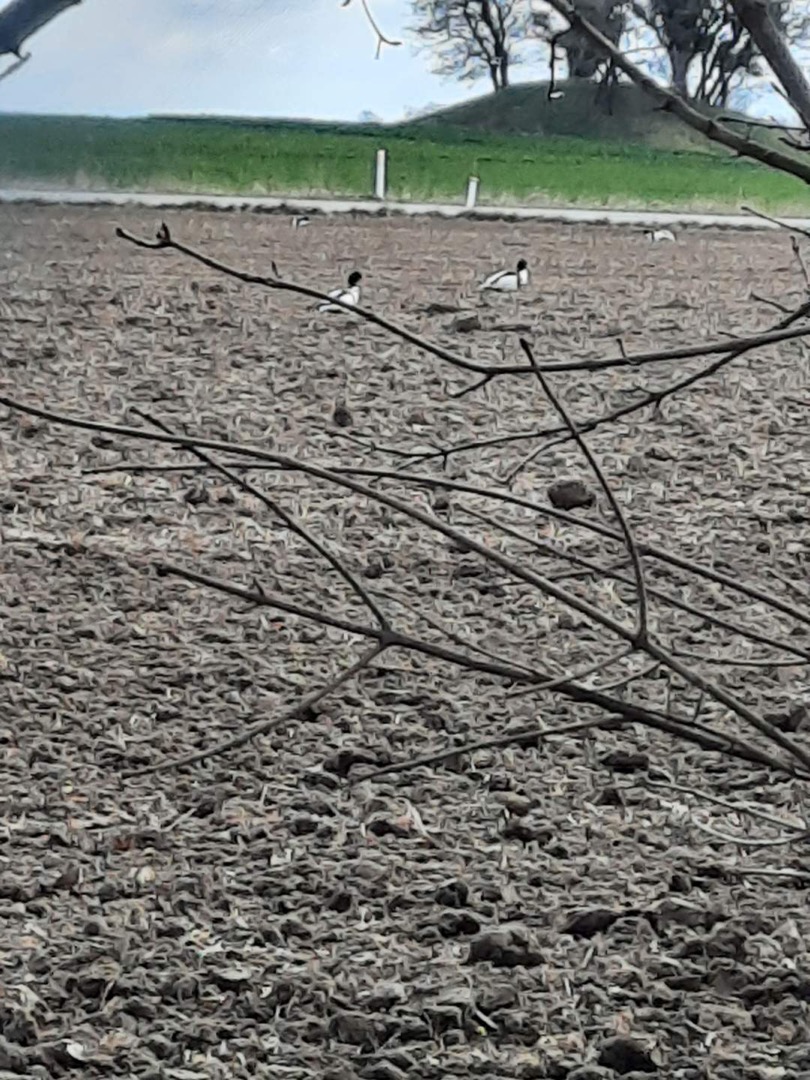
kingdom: Animalia
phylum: Chordata
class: Aves
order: Anseriformes
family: Anatidae
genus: Tadorna
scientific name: Tadorna tadorna
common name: Gravand
